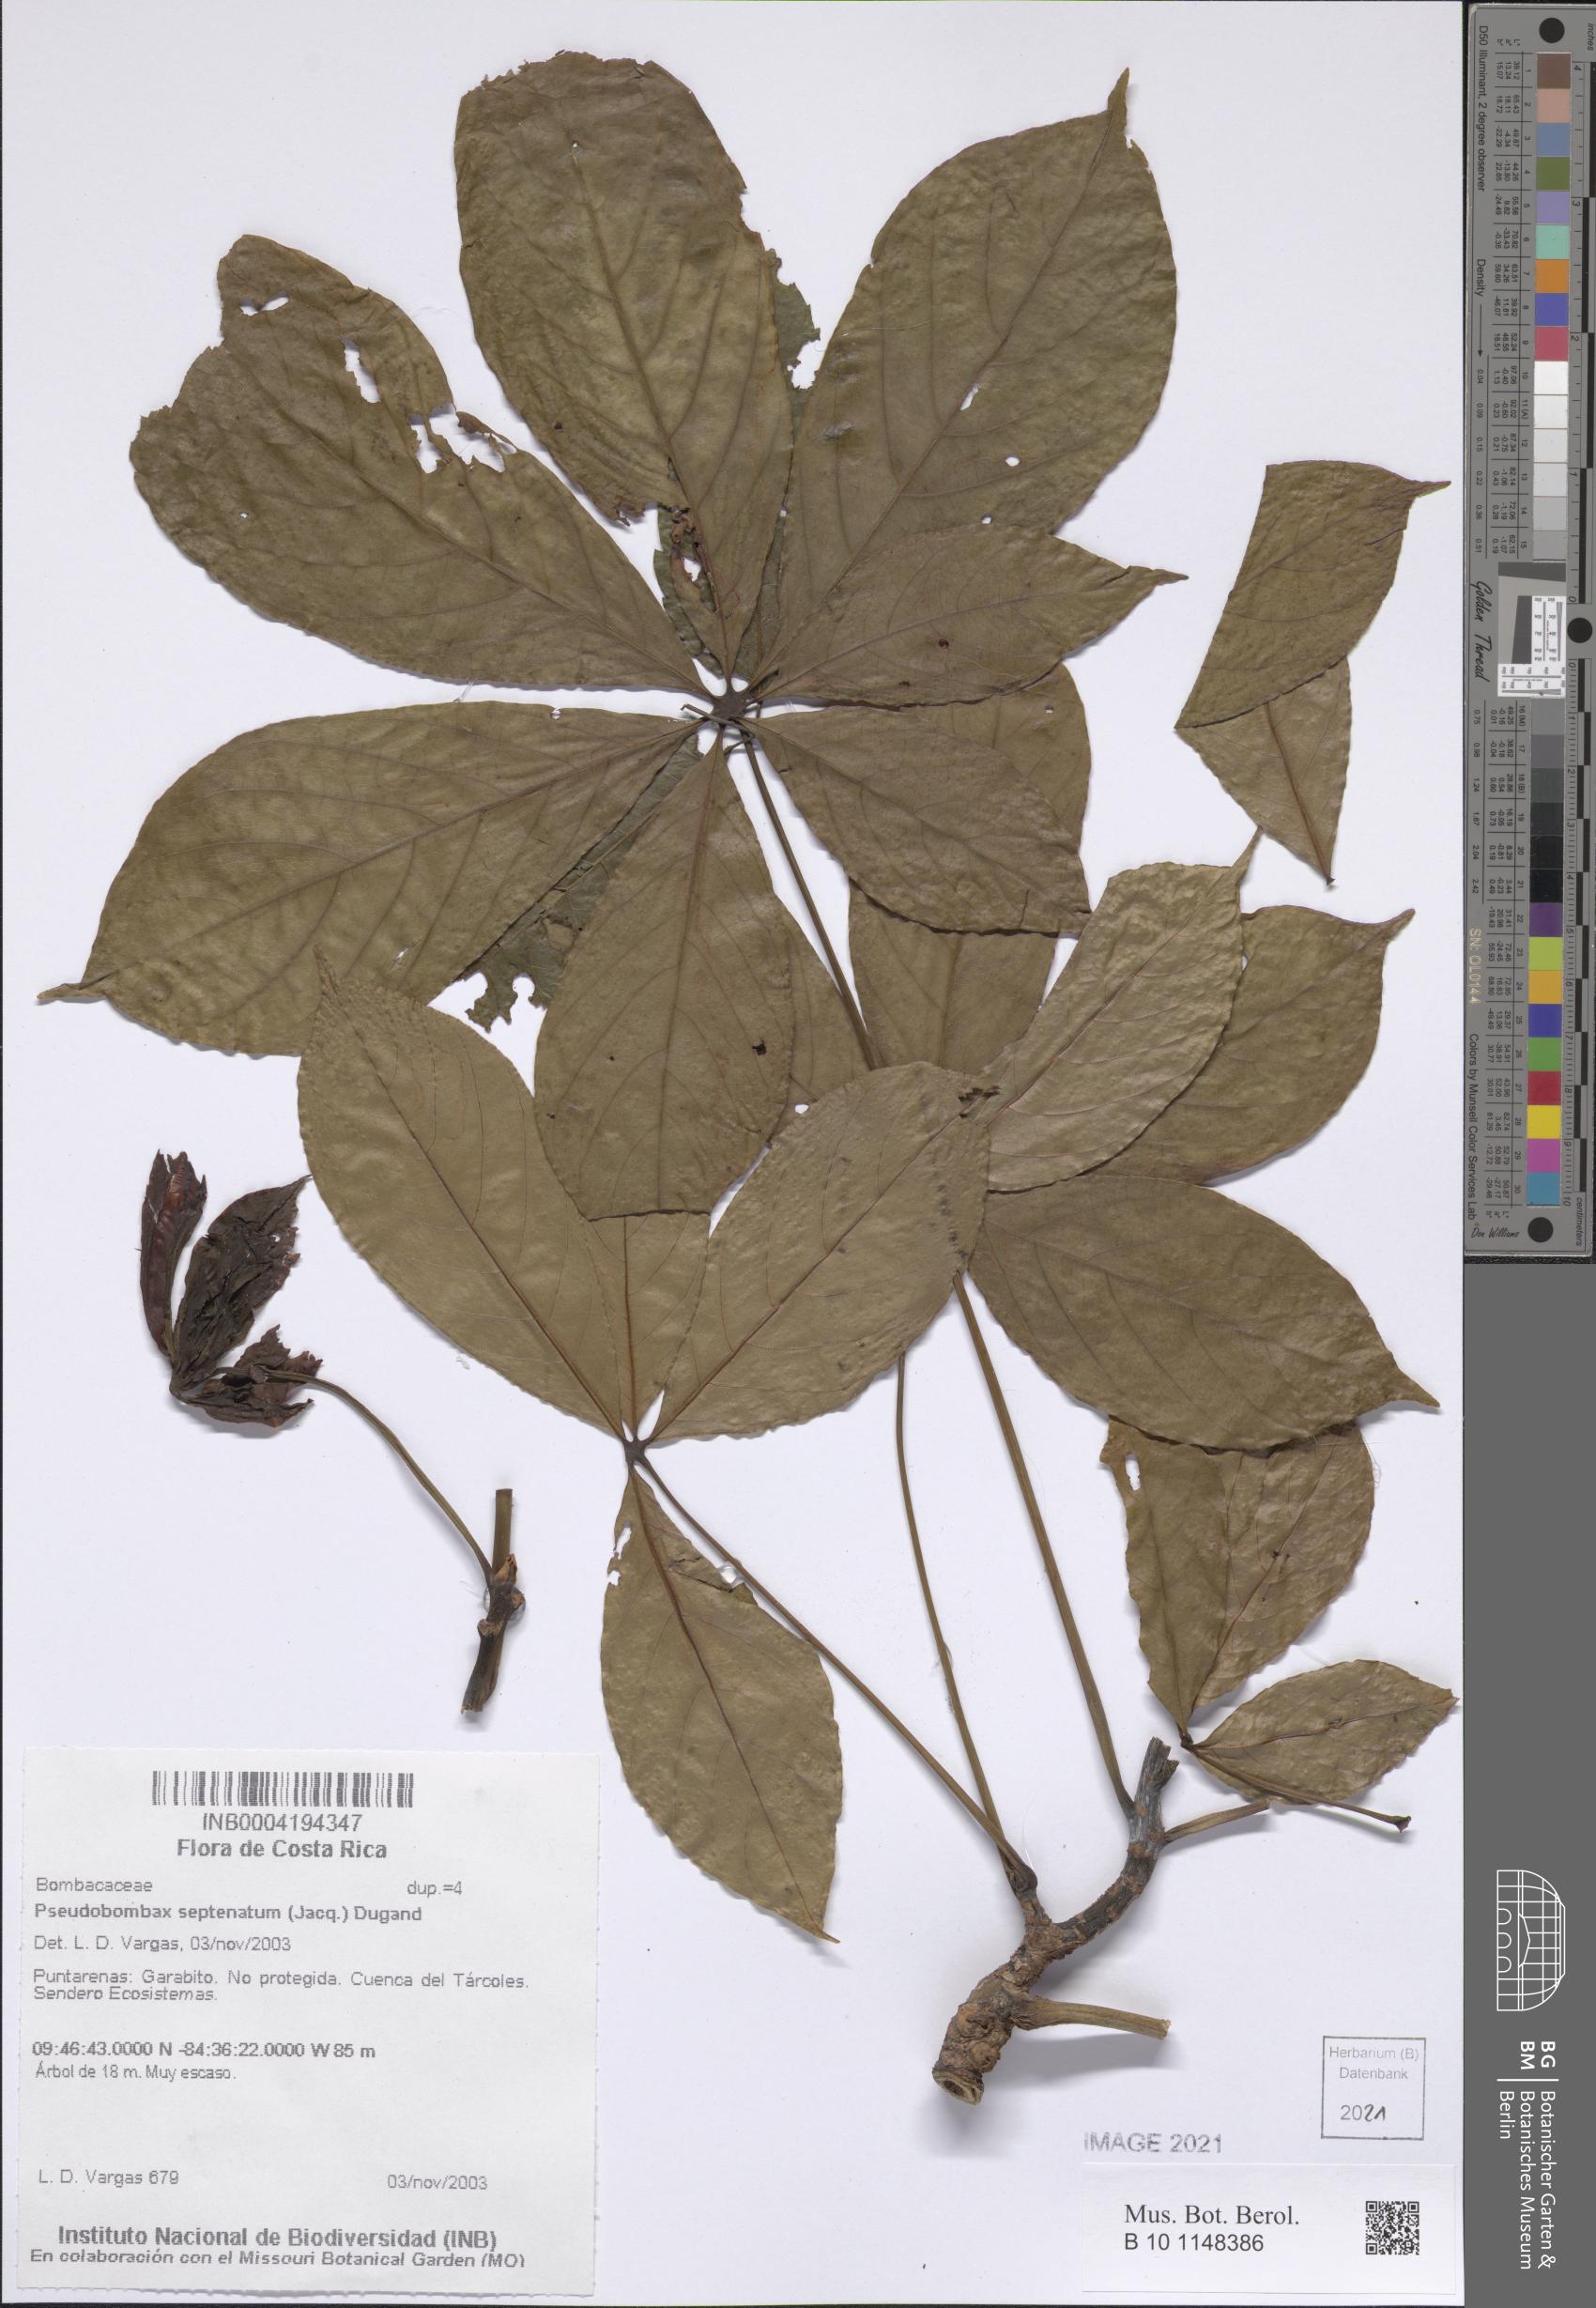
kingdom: Plantae
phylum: Tracheophyta
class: Magnoliopsida
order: Malvales
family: Malvaceae
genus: Pseudobombax
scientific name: Pseudobombax septenatum
